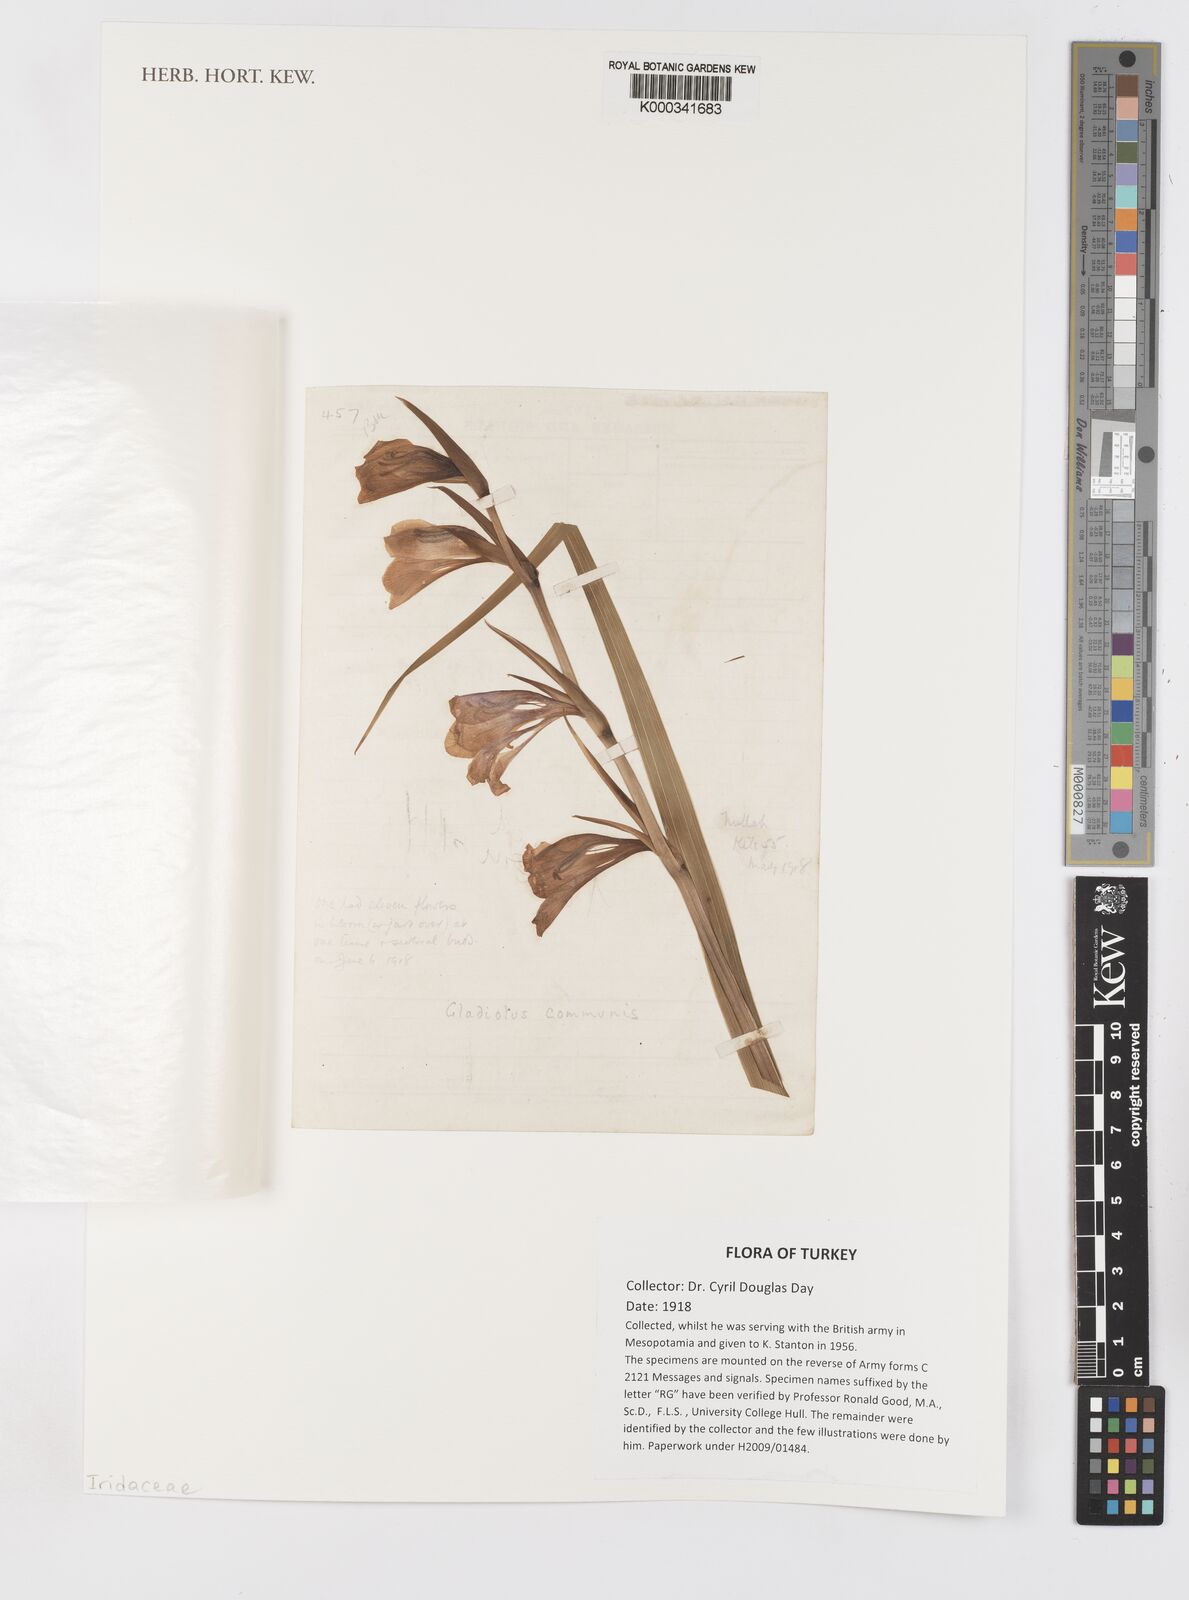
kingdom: Plantae
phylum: Tracheophyta
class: Liliopsida
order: Asparagales
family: Iridaceae
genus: Gladiolus
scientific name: Gladiolus communis
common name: Eastern gladiolus
